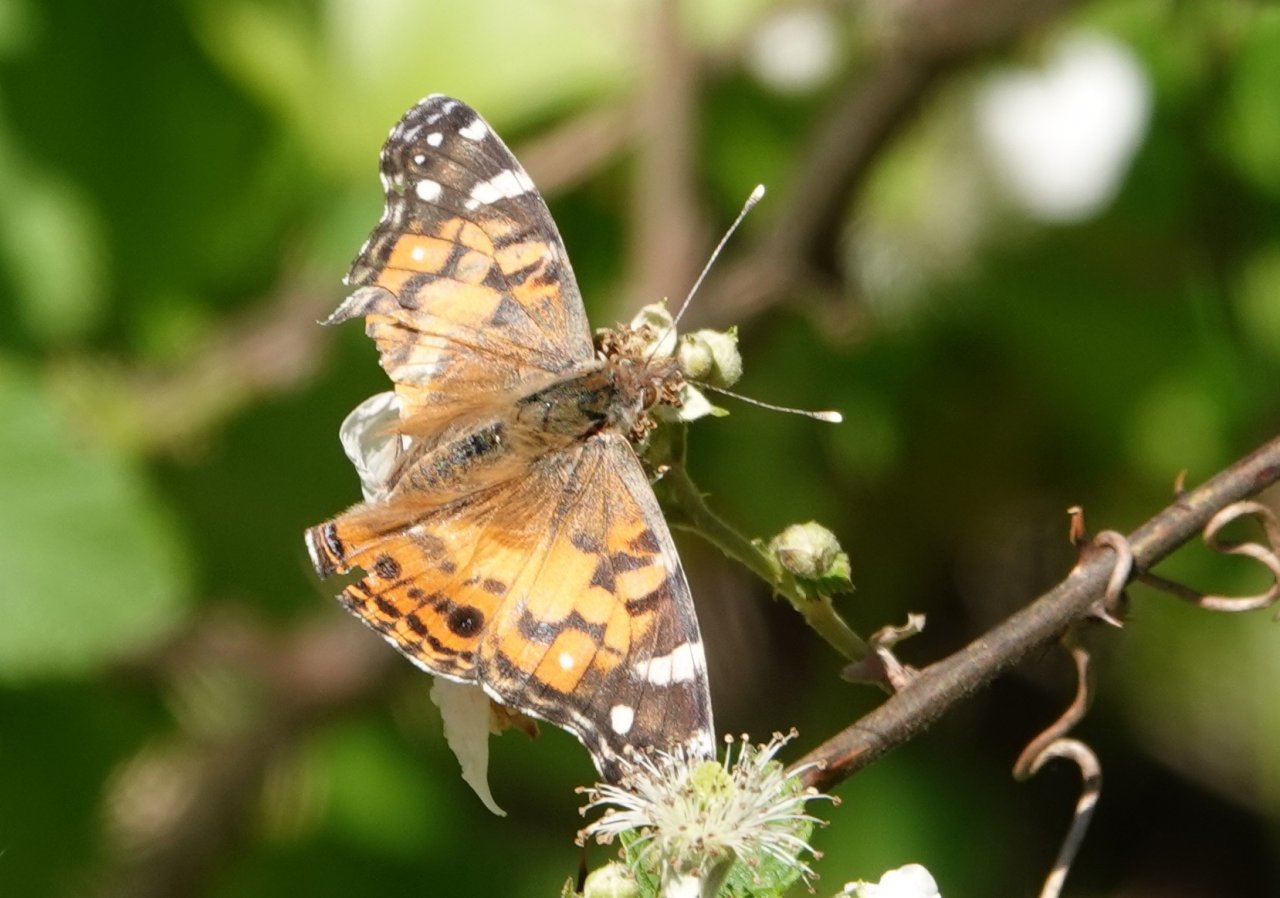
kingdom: Animalia
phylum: Arthropoda
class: Insecta
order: Lepidoptera
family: Nymphalidae
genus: Vanessa
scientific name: Vanessa virginiensis
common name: American Lady
